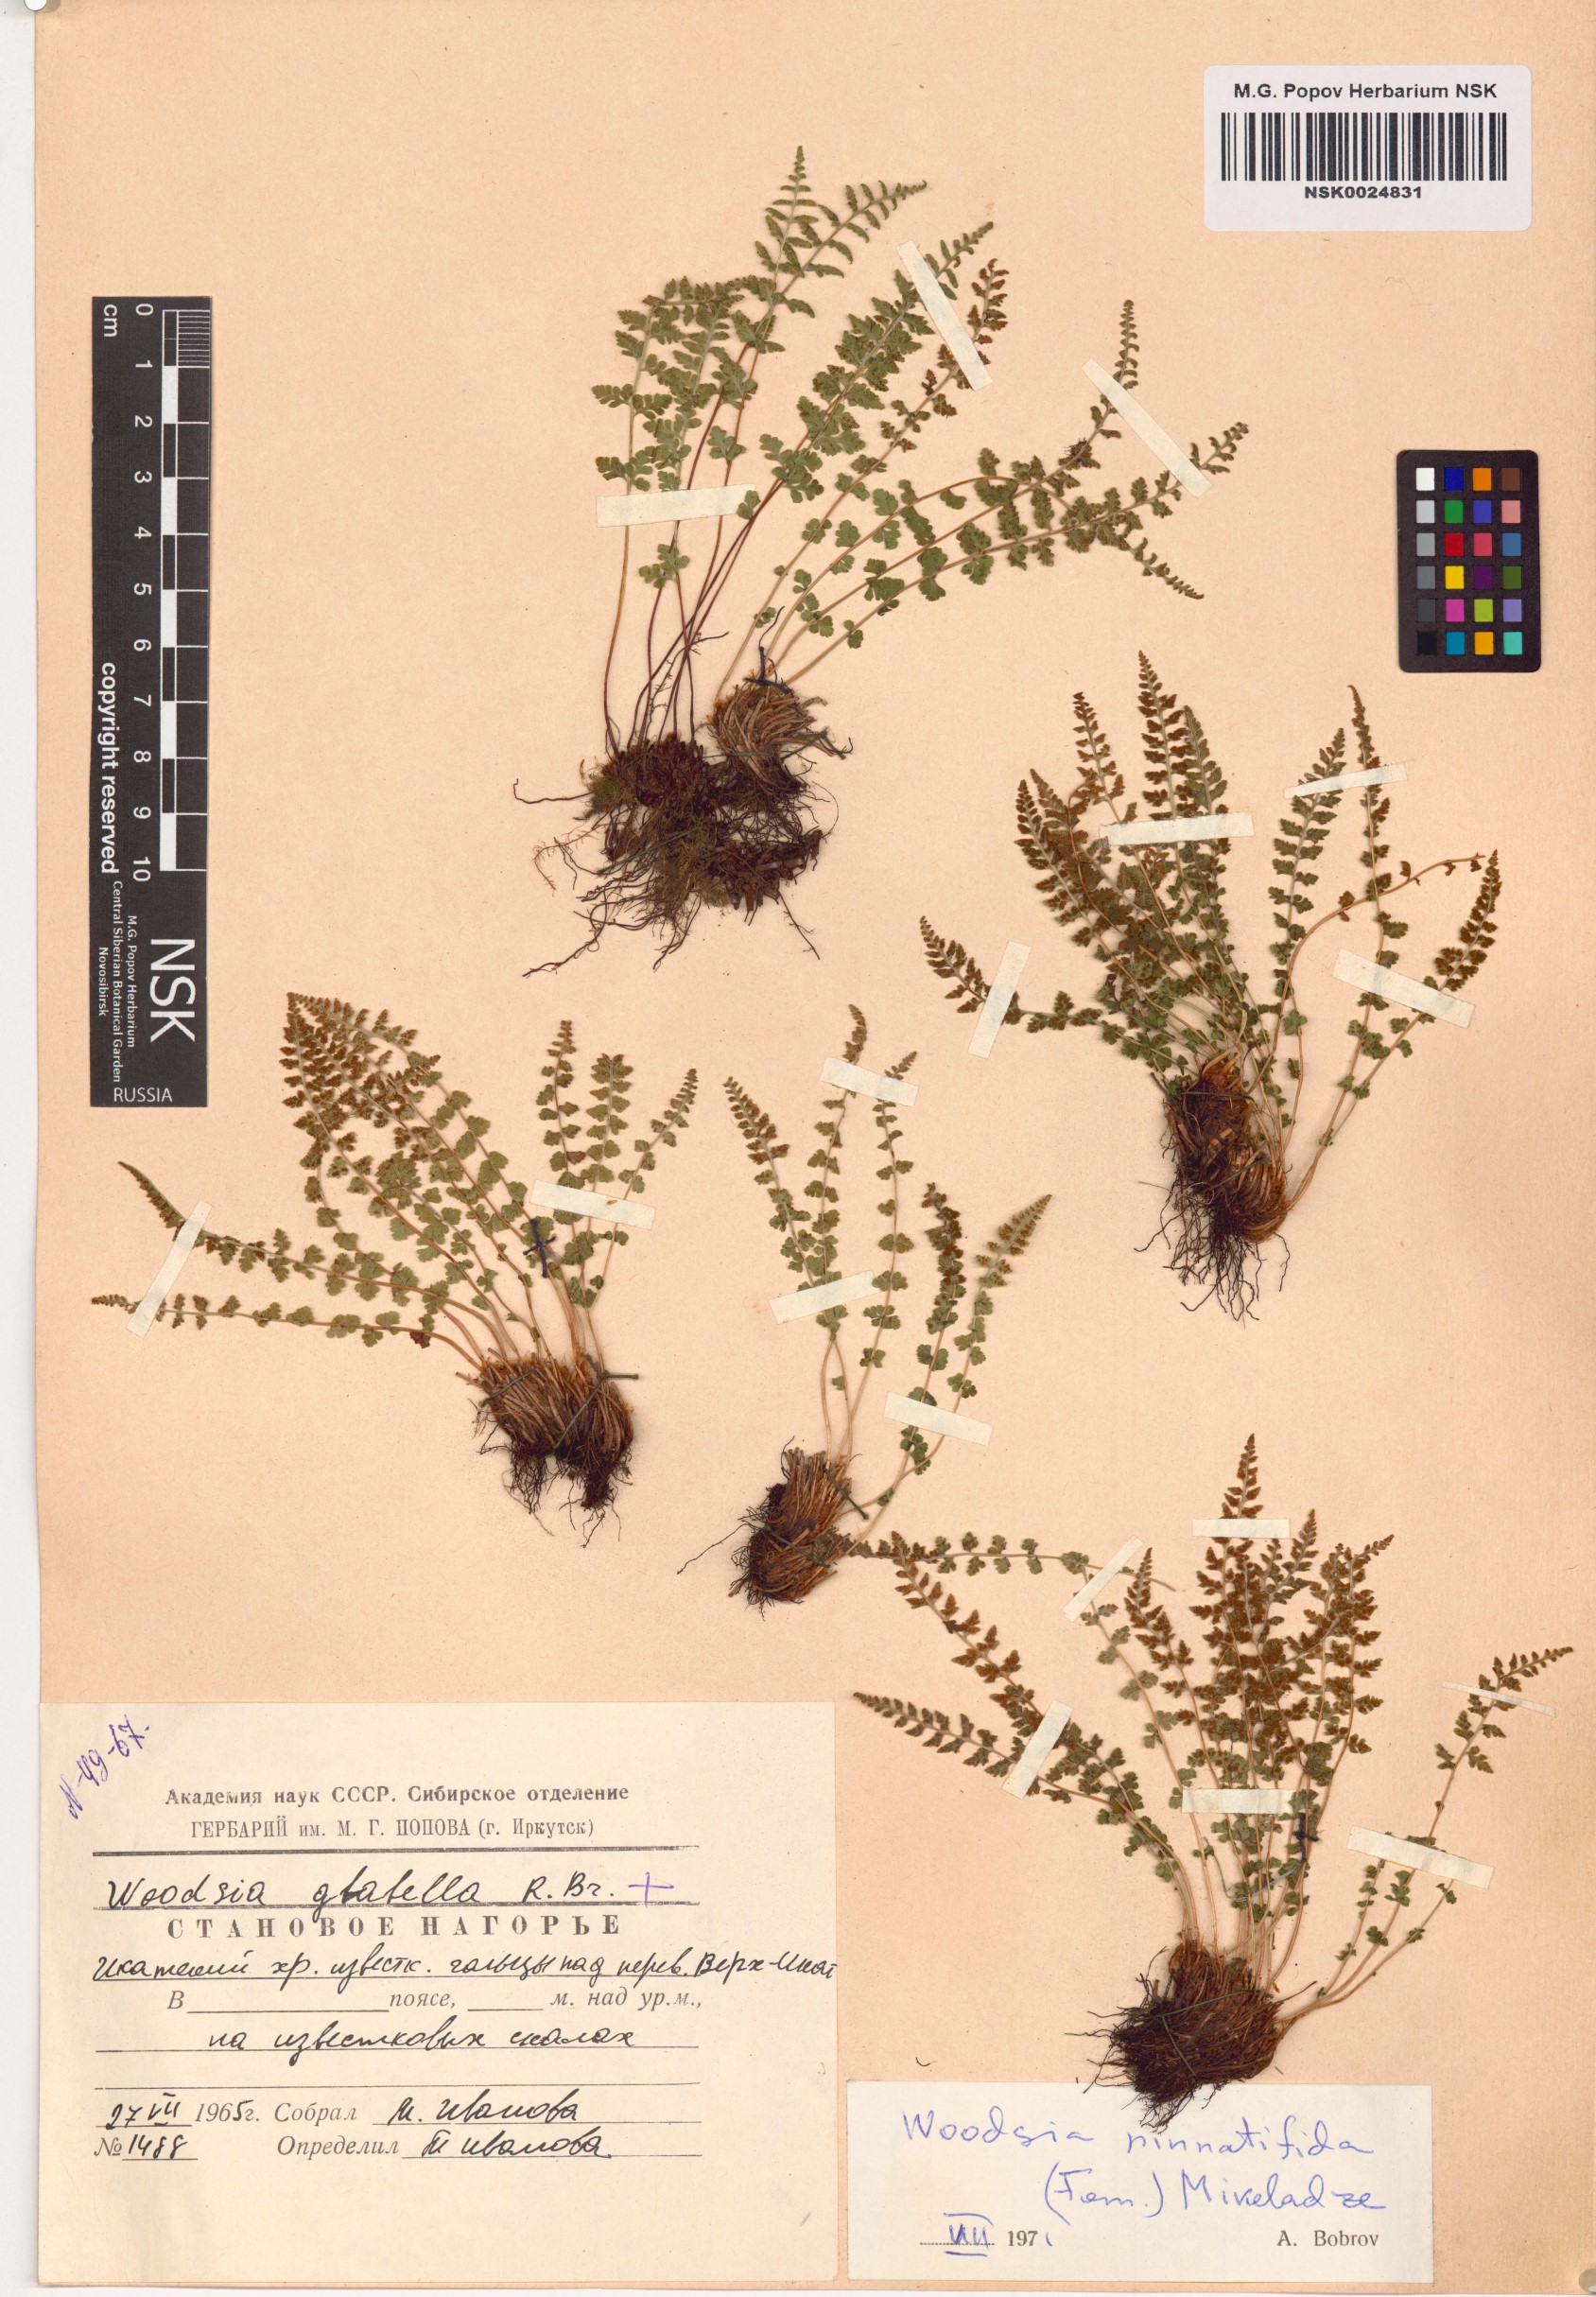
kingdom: Plantae
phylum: Tracheophyta
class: Polypodiopsida
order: Polypodiales
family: Woodsiaceae
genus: Woodsia
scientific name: Woodsia pulchella
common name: Graceful woodsia
